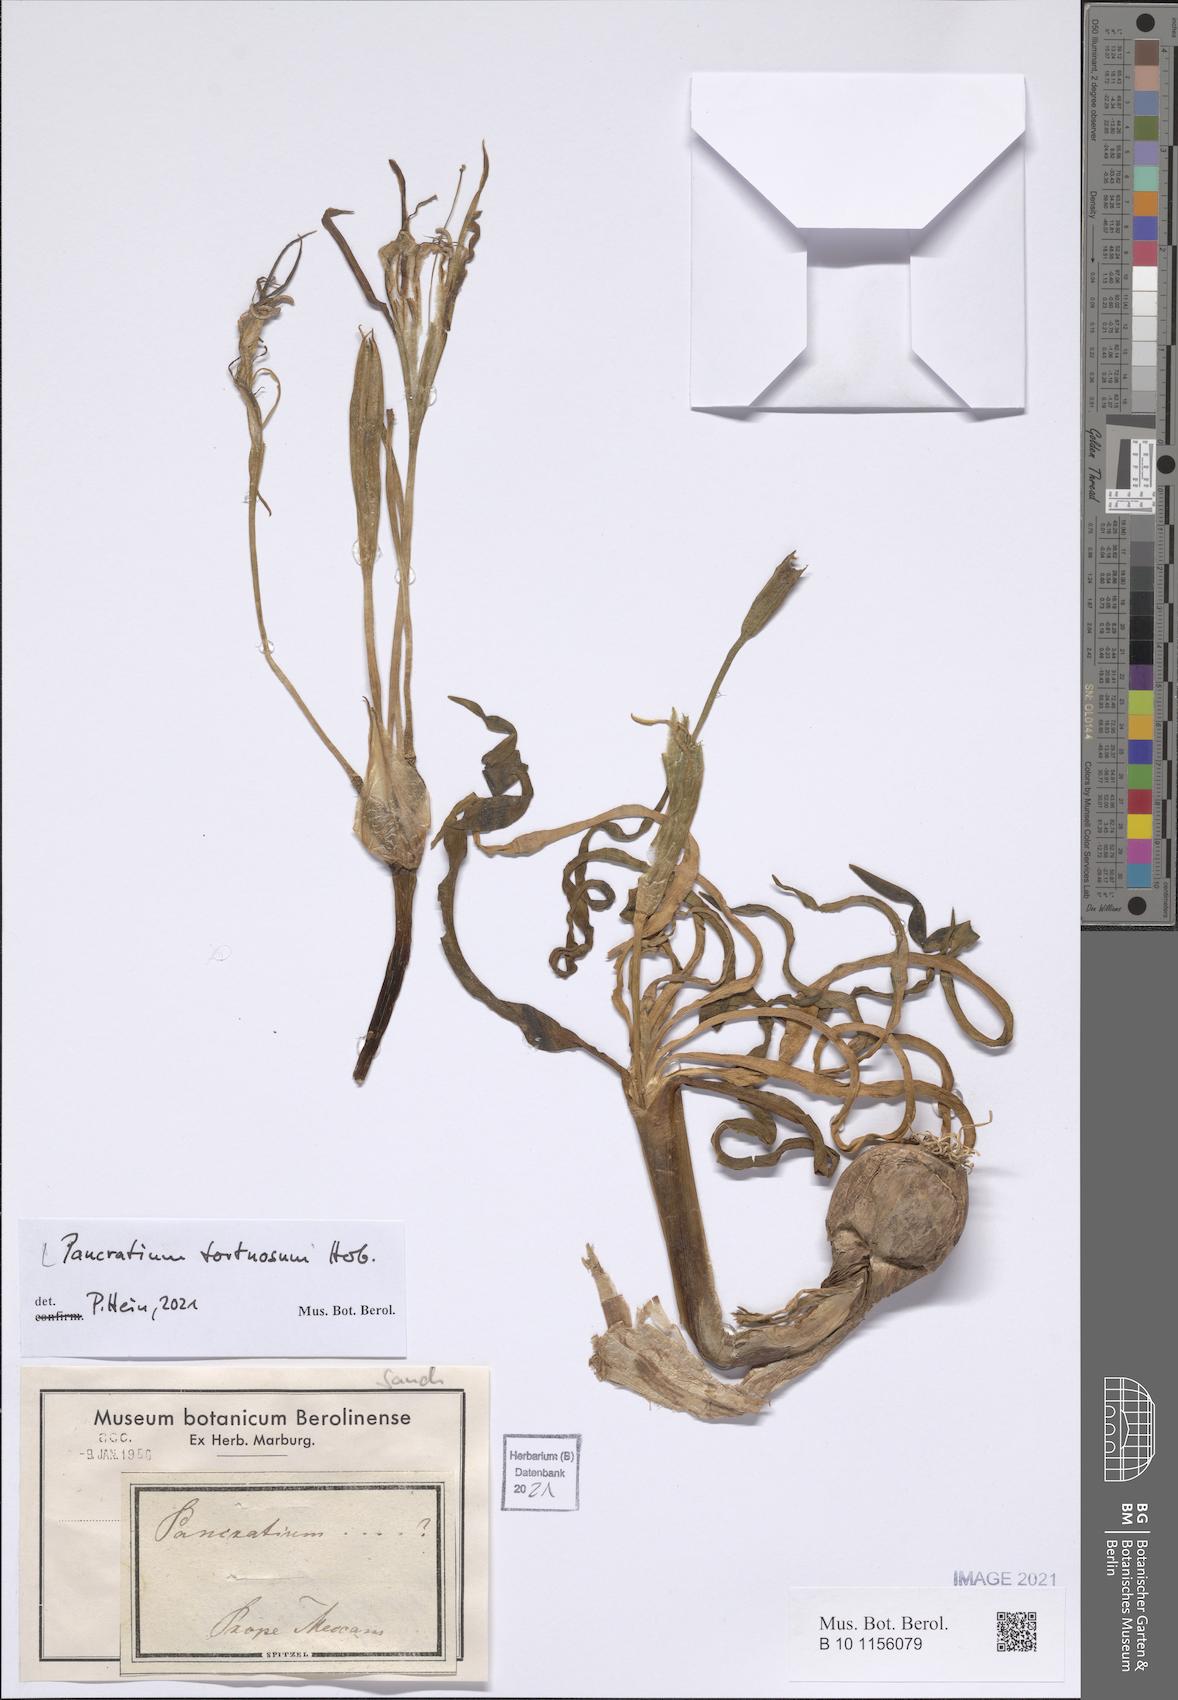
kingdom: Plantae
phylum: Tracheophyta
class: Liliopsida
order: Asparagales
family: Amaryllidaceae
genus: Pancratium
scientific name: Pancratium tortuosum
